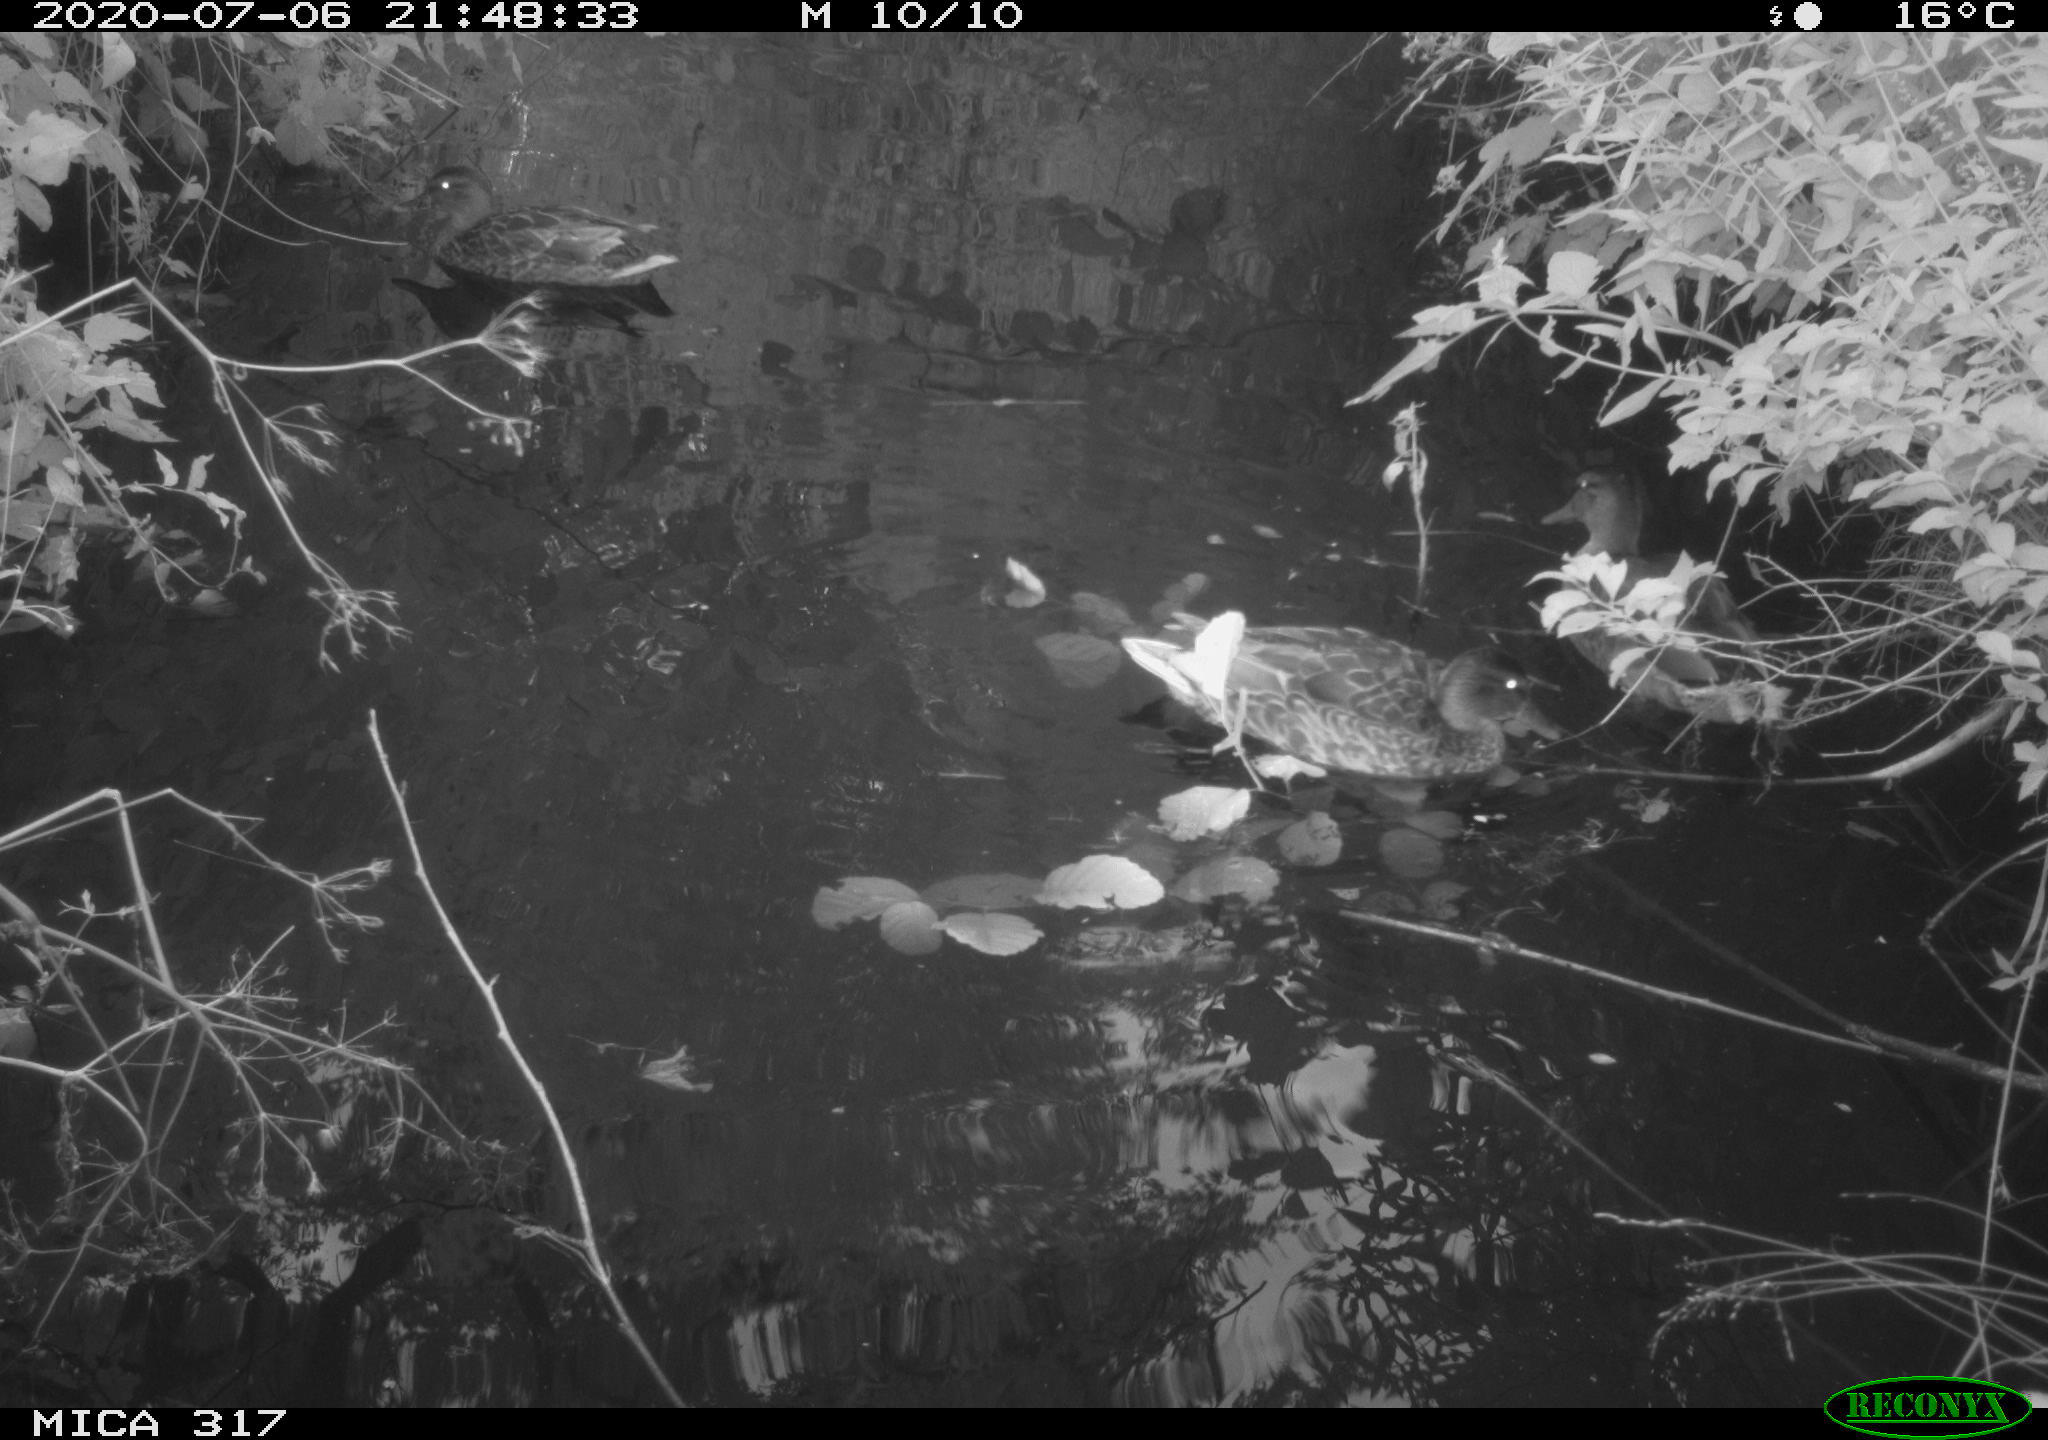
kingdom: Animalia
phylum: Chordata
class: Aves
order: Anseriformes
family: Anatidae
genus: Anas
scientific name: Anas platyrhynchos
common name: Mallard
